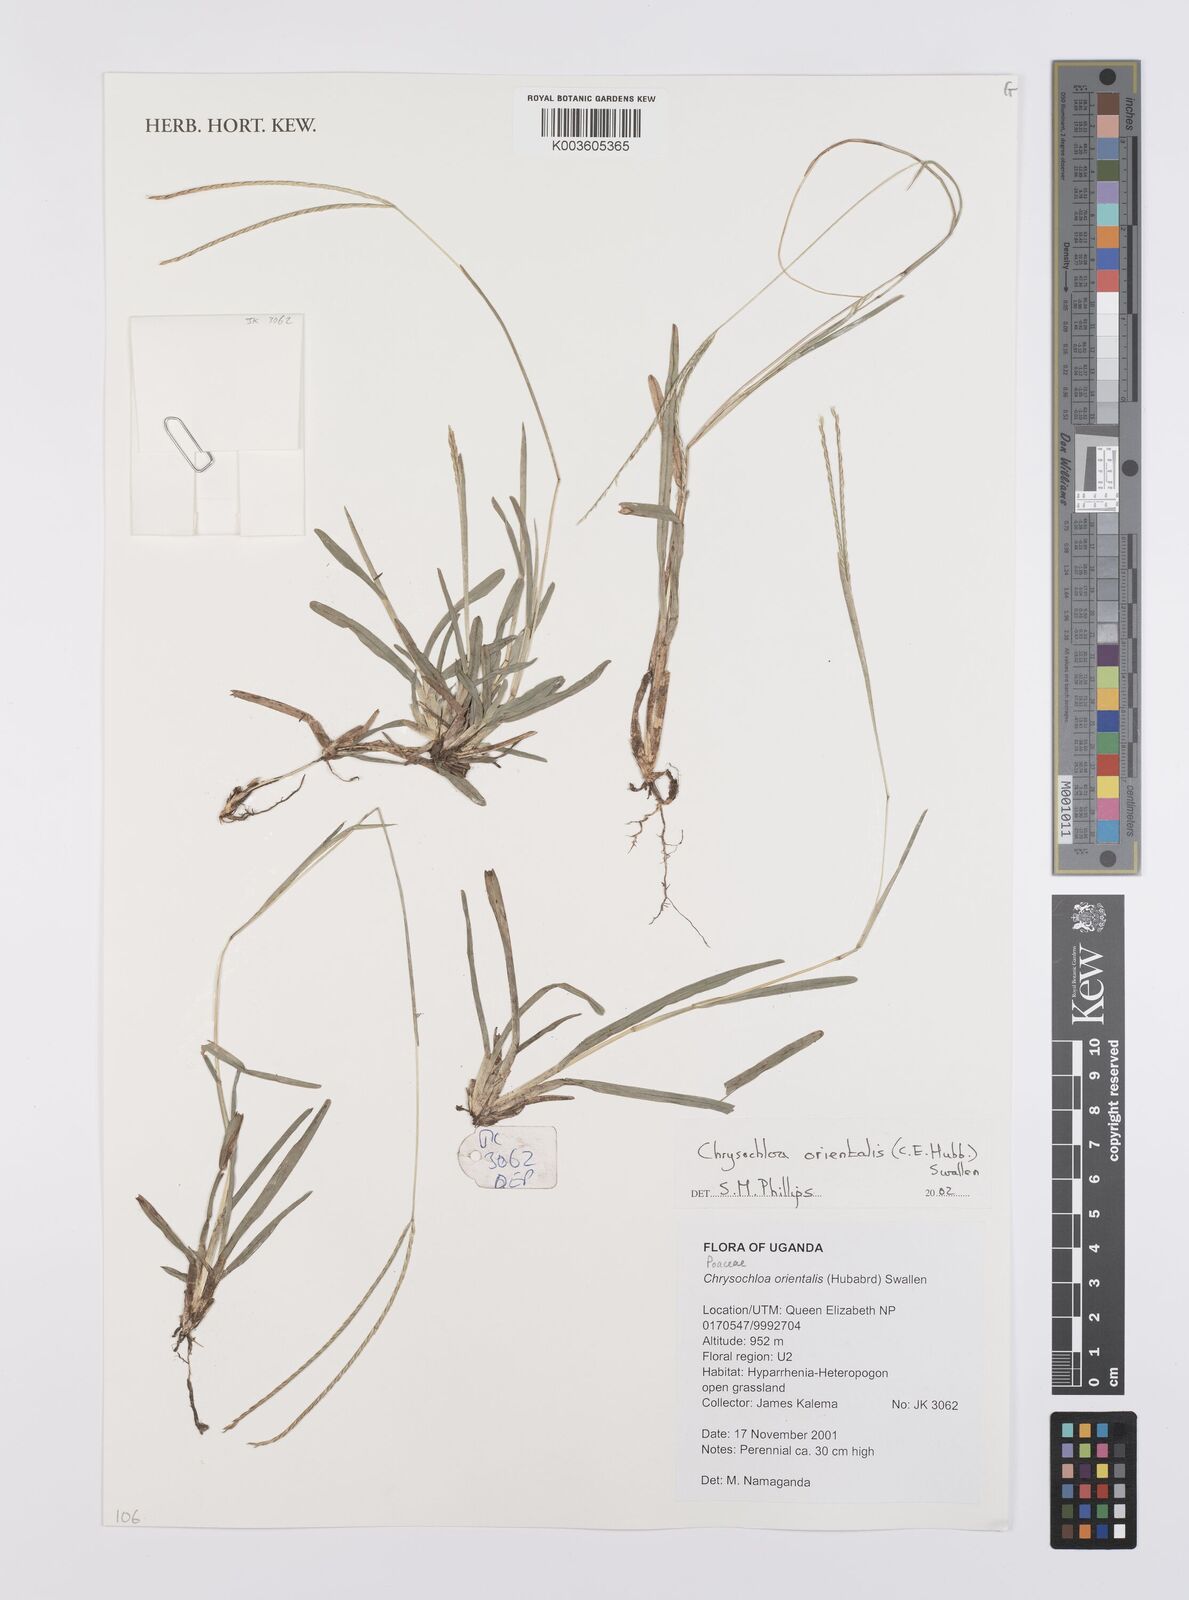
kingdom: Plantae
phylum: Tracheophyta
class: Liliopsida
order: Poales
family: Poaceae
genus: Chrysochloa
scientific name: Chrysochloa orientalis
